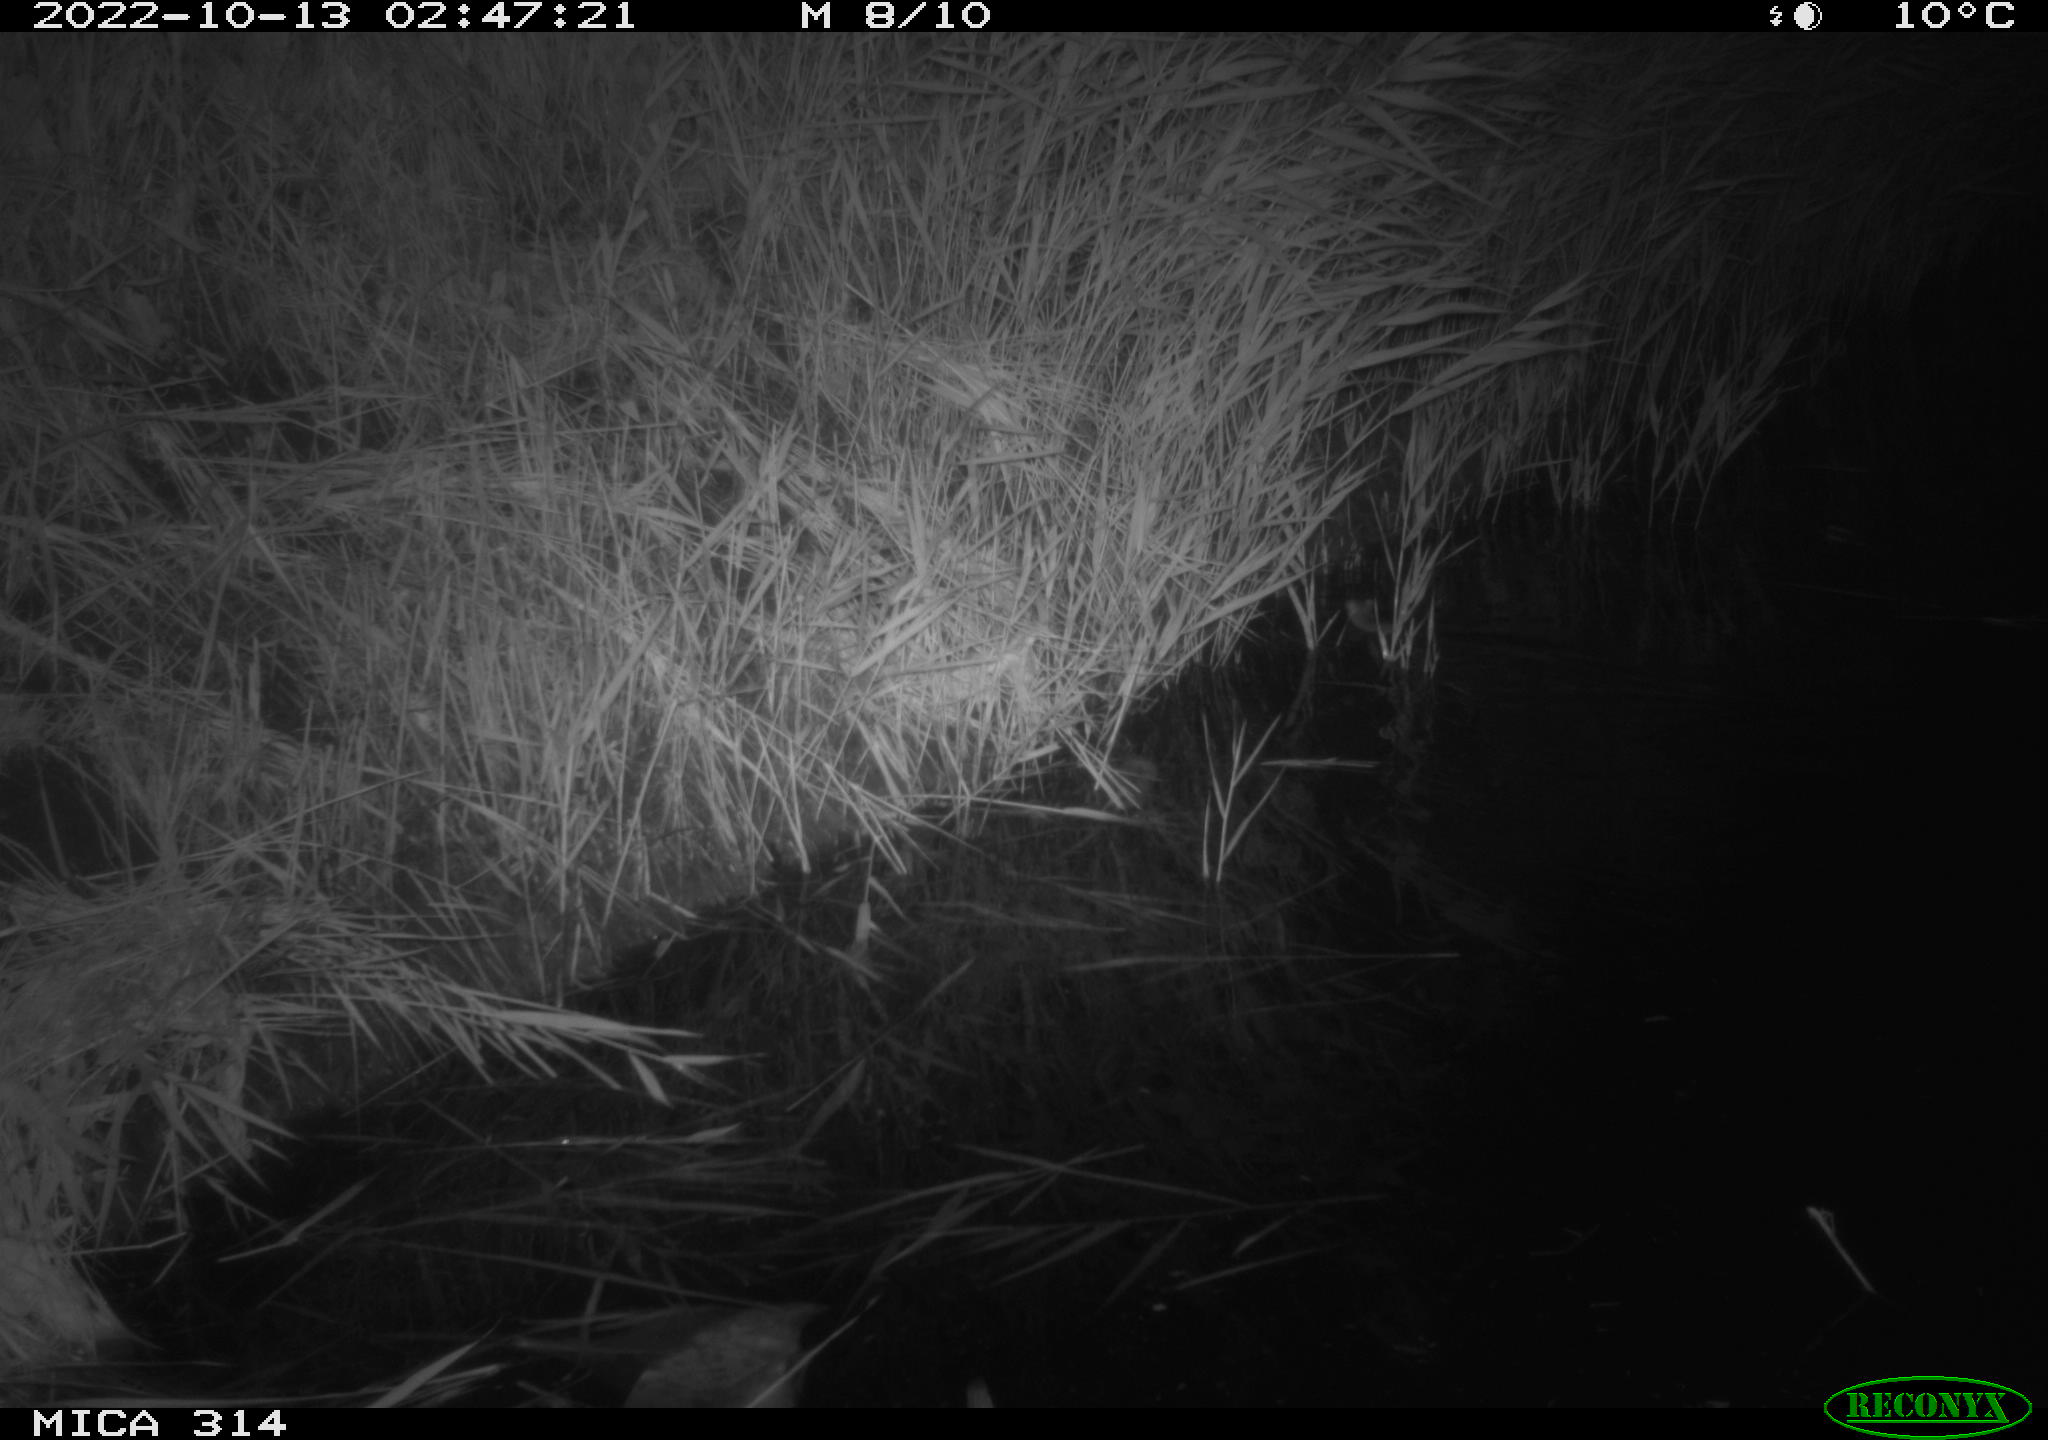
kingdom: Animalia
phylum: Chordata
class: Mammalia
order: Rodentia
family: Muridae
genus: Rattus
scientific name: Rattus norvegicus
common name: Brown rat
